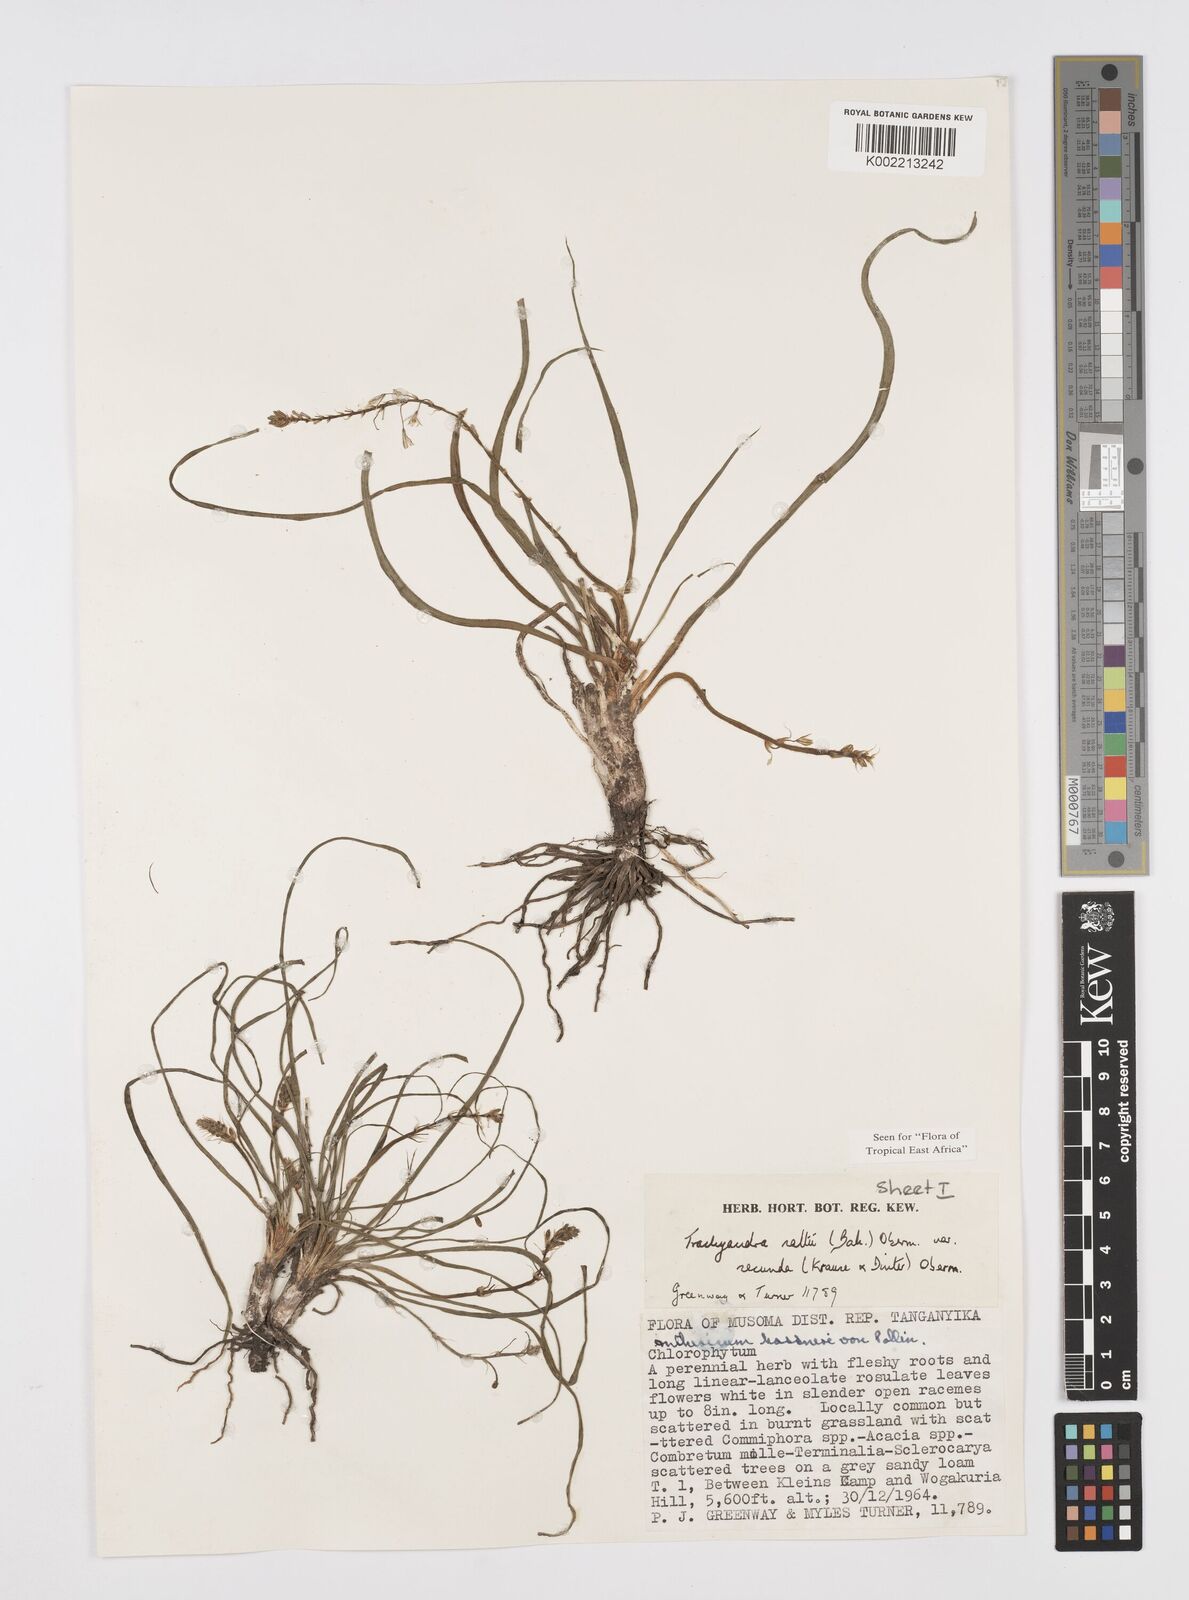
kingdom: Plantae
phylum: Tracheophyta
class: Liliopsida
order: Asparagales
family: Asphodelaceae
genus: Trachyandra
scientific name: Trachyandra saltii
